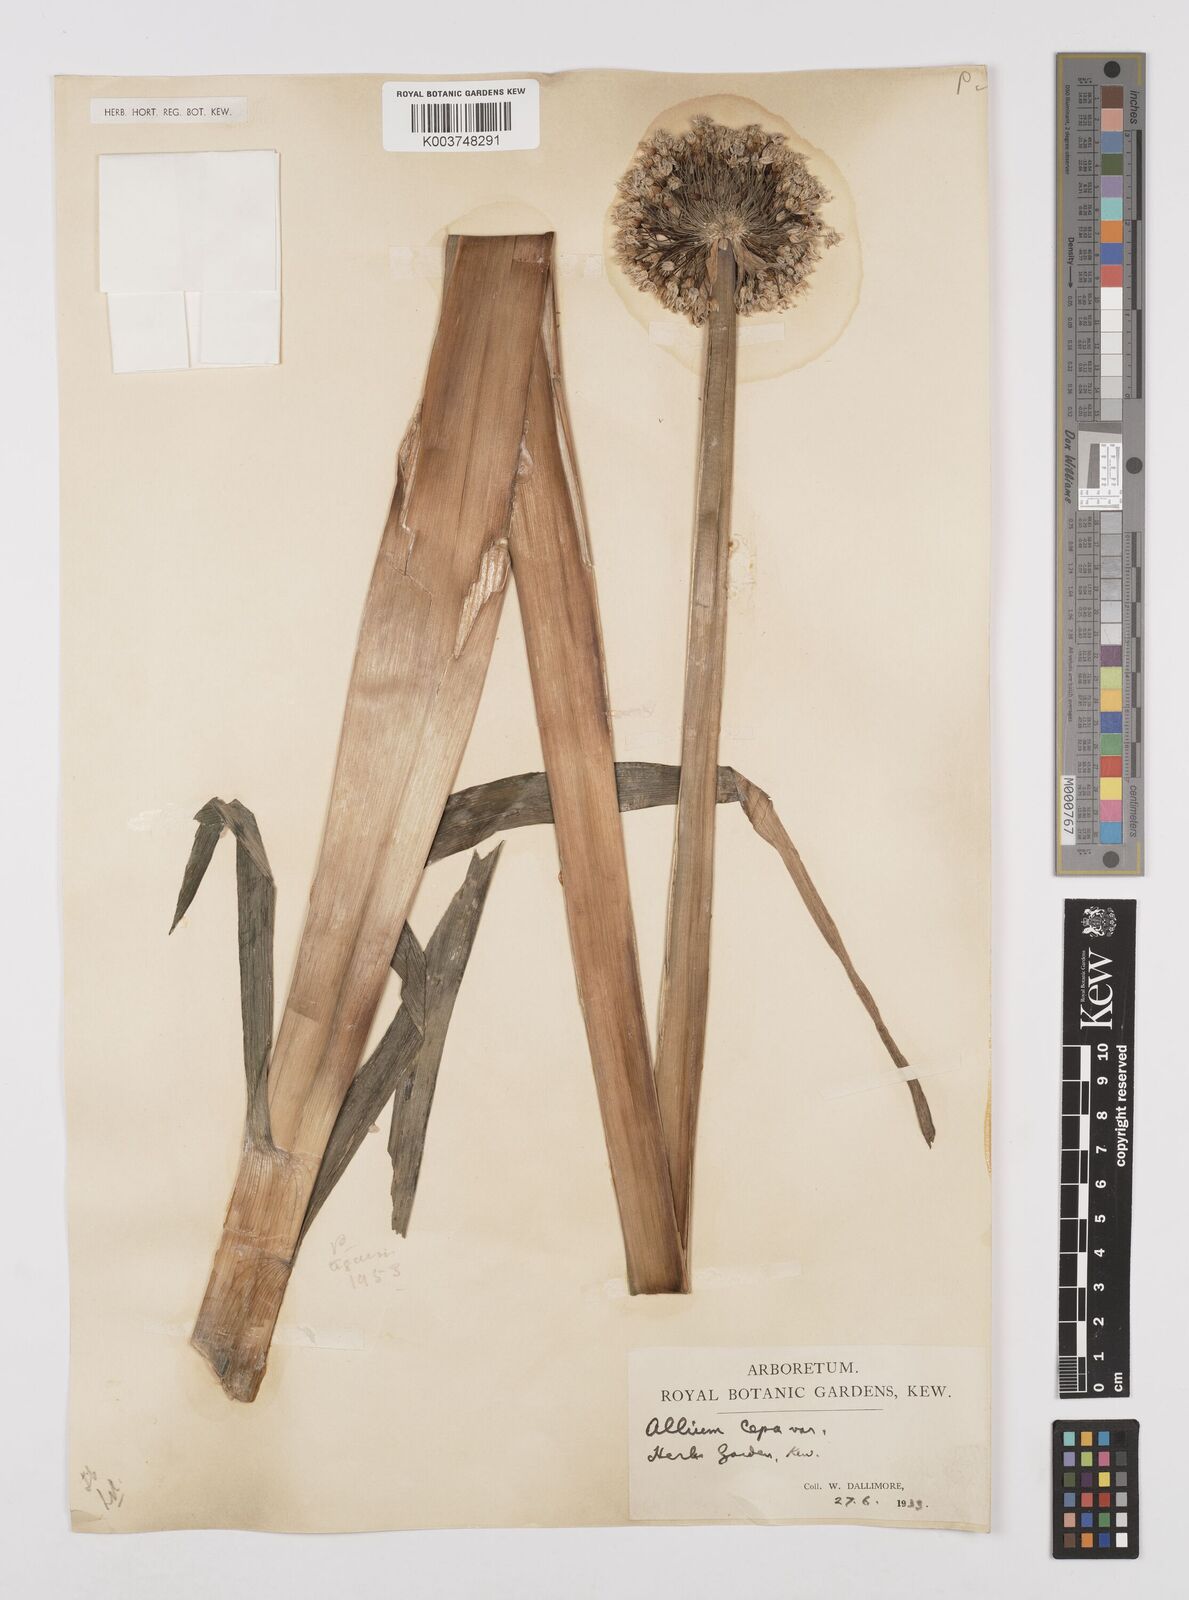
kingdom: Plantae
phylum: Tracheophyta
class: Liliopsida
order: Asparagales
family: Amaryllidaceae
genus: Allium
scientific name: Allium cepa
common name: Onion
